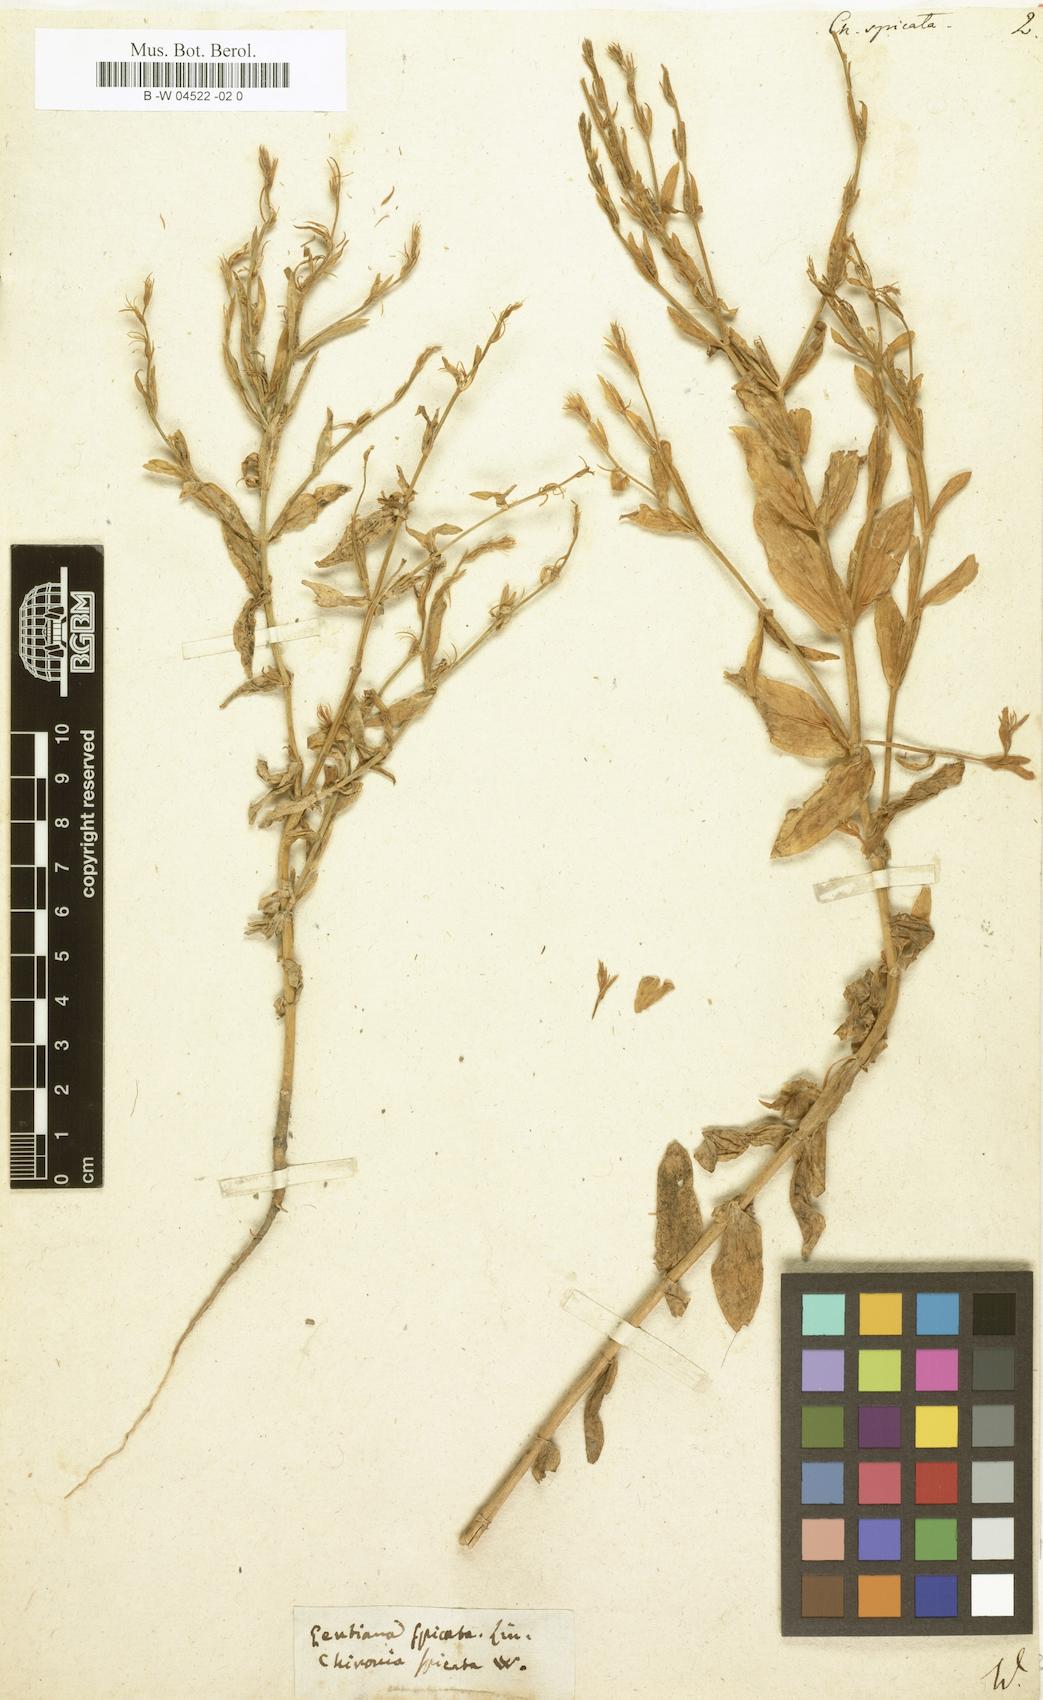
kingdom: Plantae
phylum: Tracheophyta
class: Magnoliopsida
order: Gentianales
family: Gentianaceae
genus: Schenkia
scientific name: Schenkia spicata
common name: Spiked centaury
